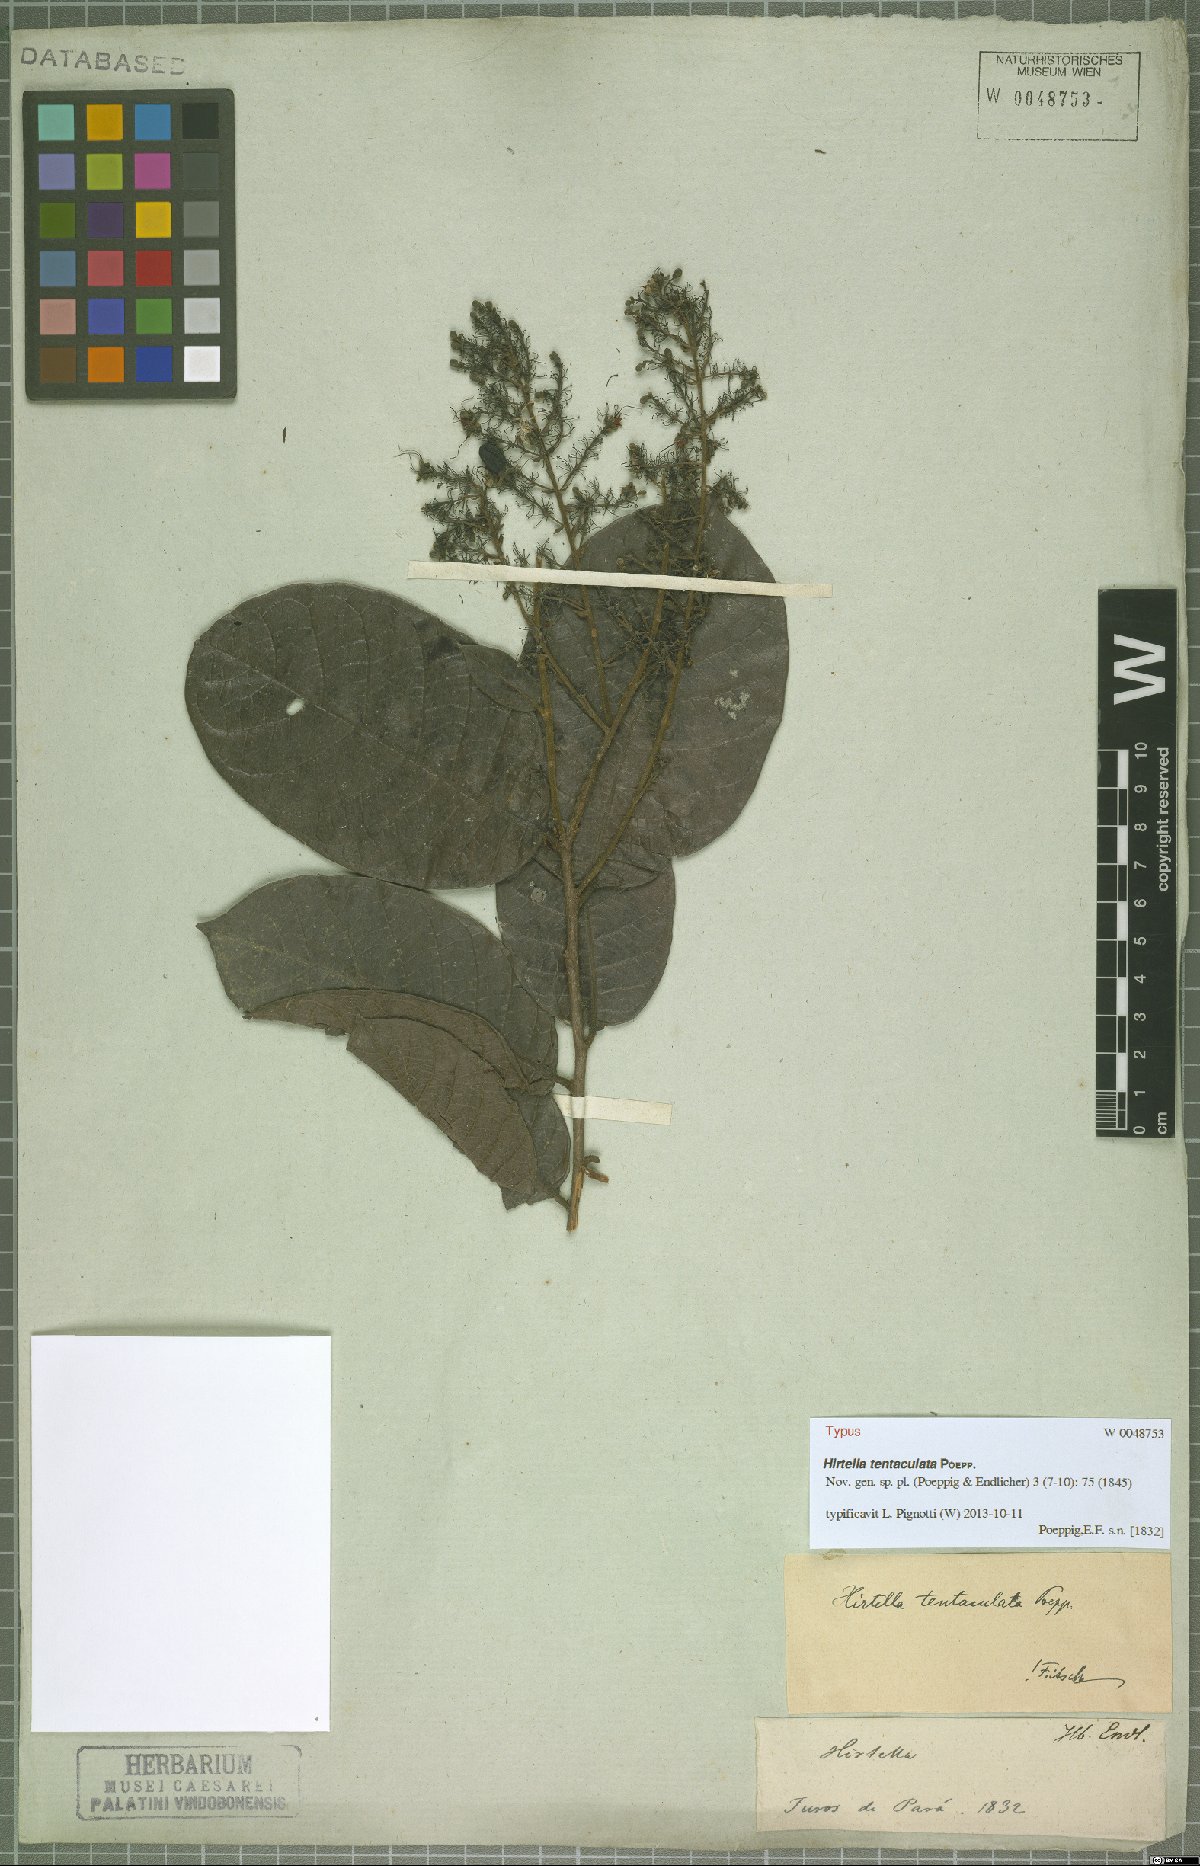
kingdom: Plantae
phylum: Tracheophyta
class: Magnoliopsida
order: Malpighiales
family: Chrysobalanaceae
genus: Hirtella
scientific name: Hirtella tentaculata
